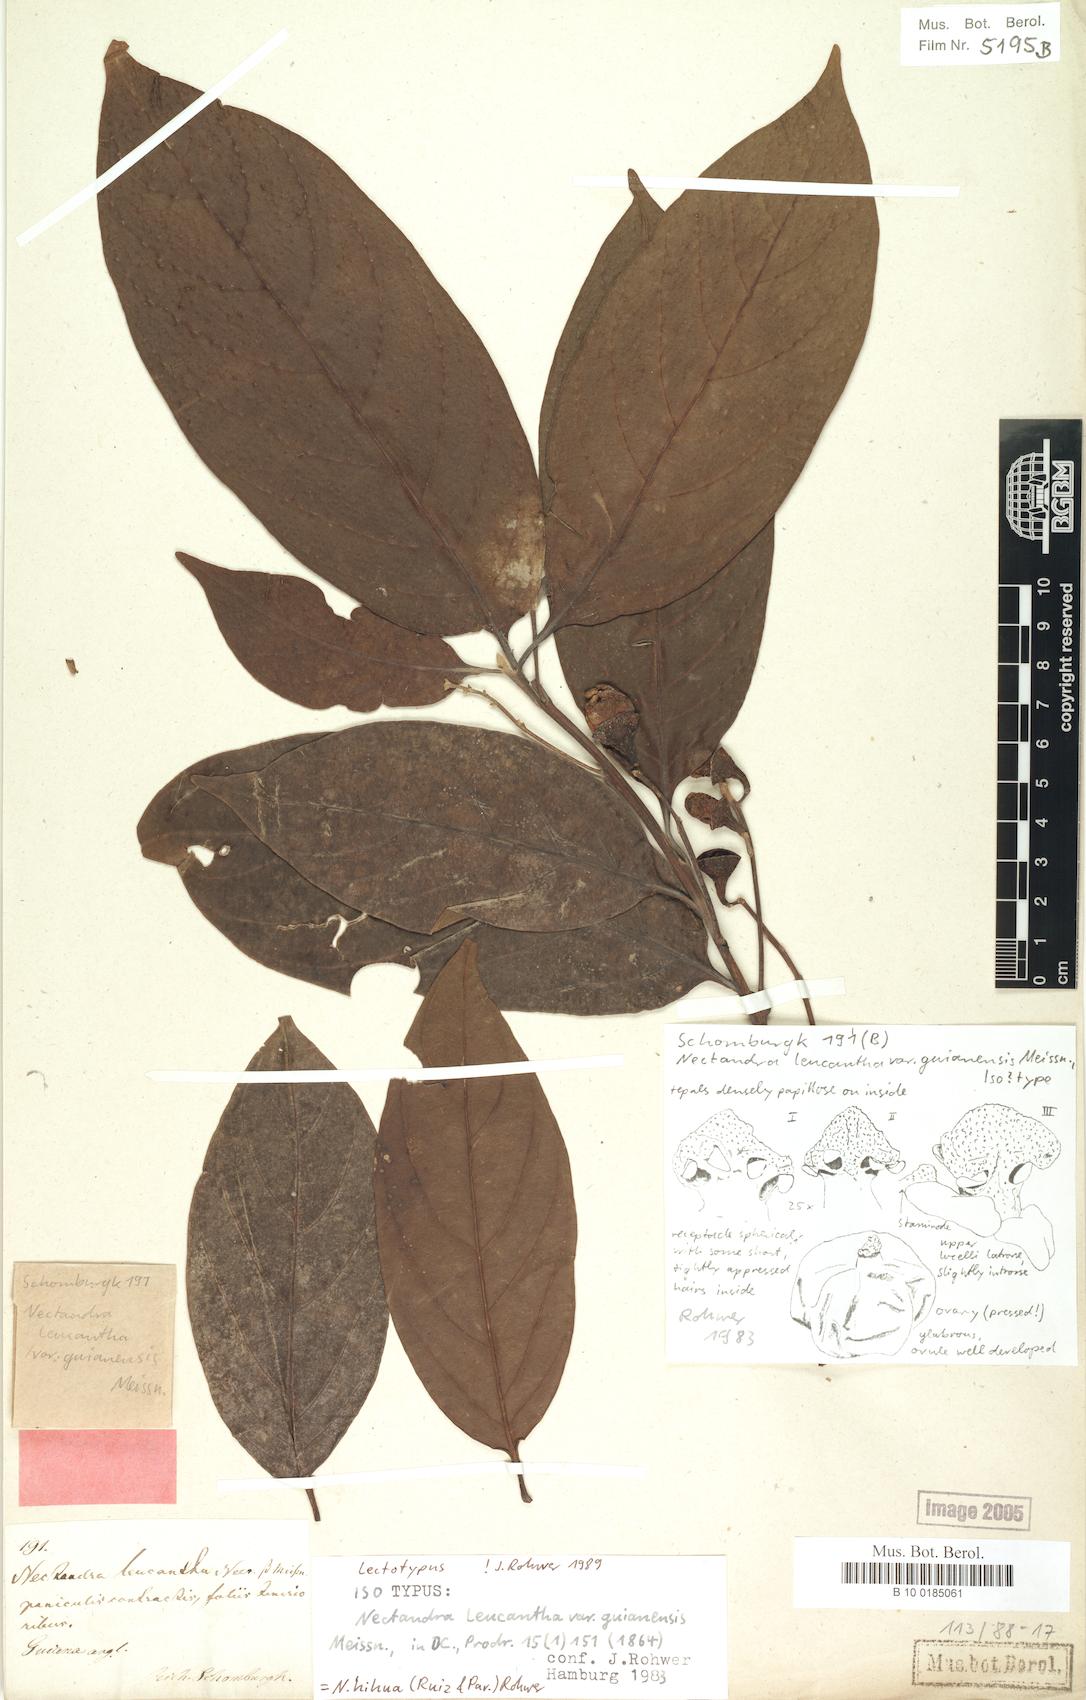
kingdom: Plantae
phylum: Tracheophyta
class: Magnoliopsida
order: Laurales
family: Lauraceae
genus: Nectandra
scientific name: Nectandra hihua
